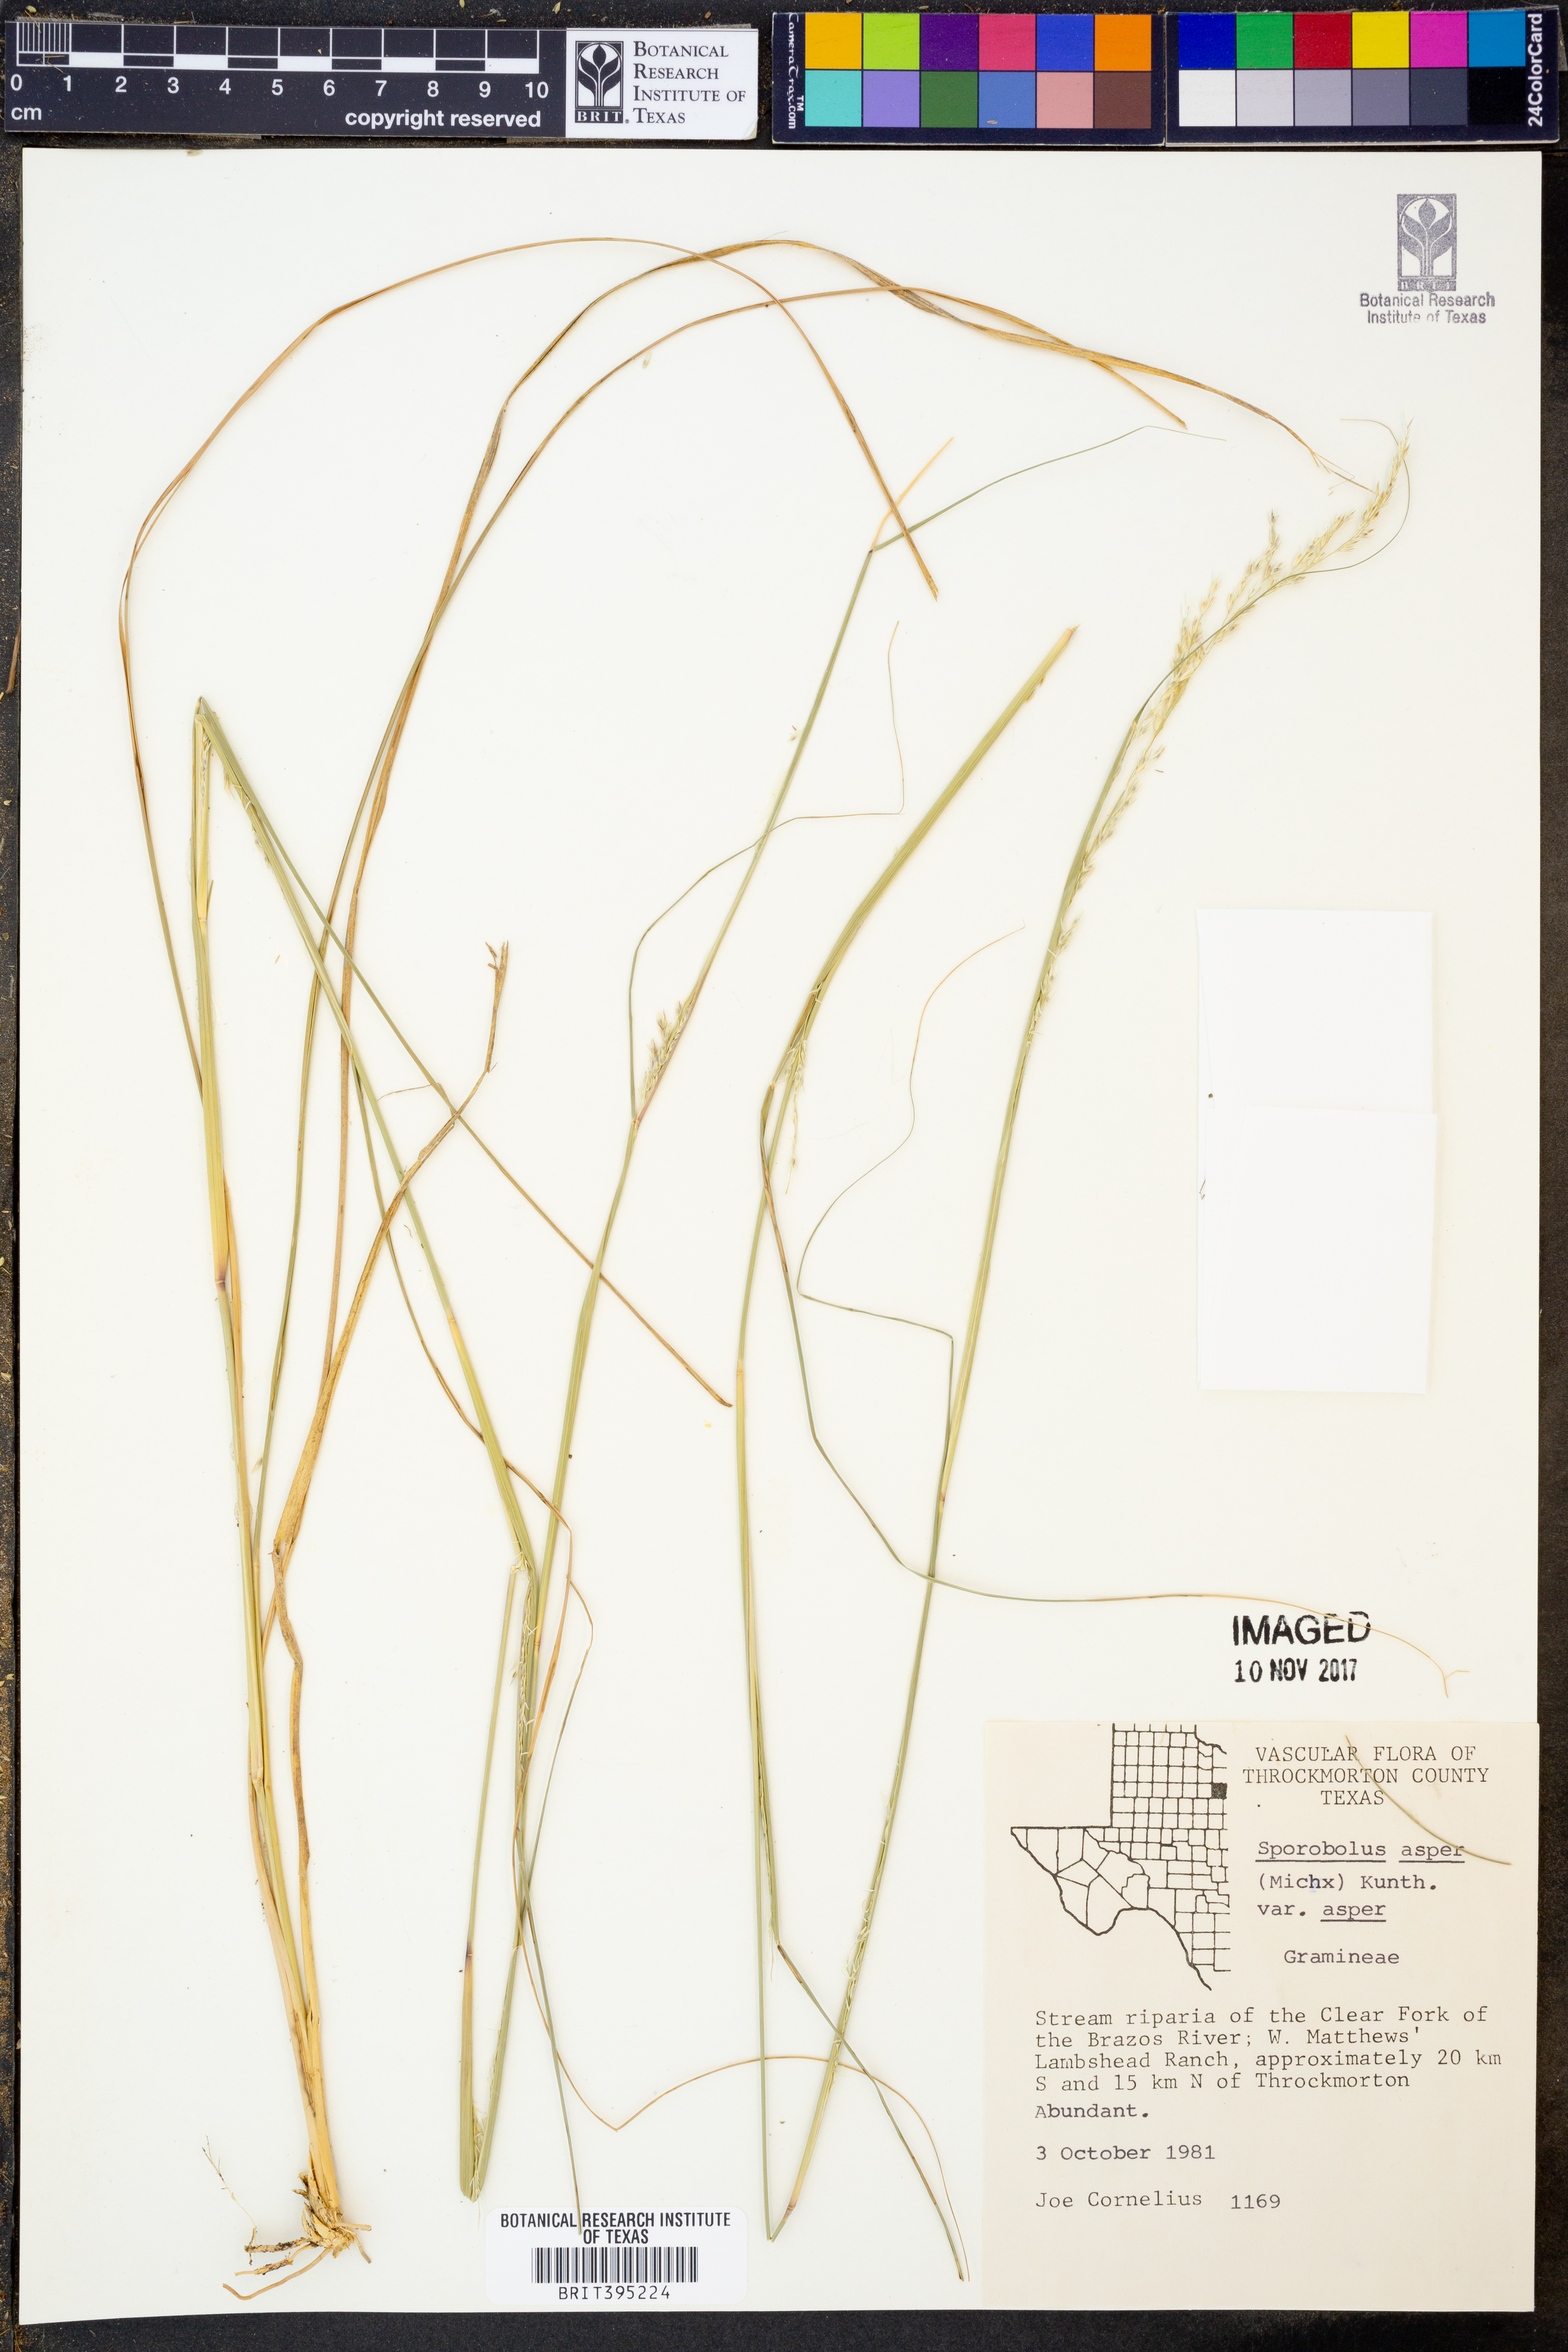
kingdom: Plantae
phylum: Tracheophyta
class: Liliopsida
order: Poales
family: Poaceae
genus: Sporobolus
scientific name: Sporobolus compositus
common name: Rough dropseed
